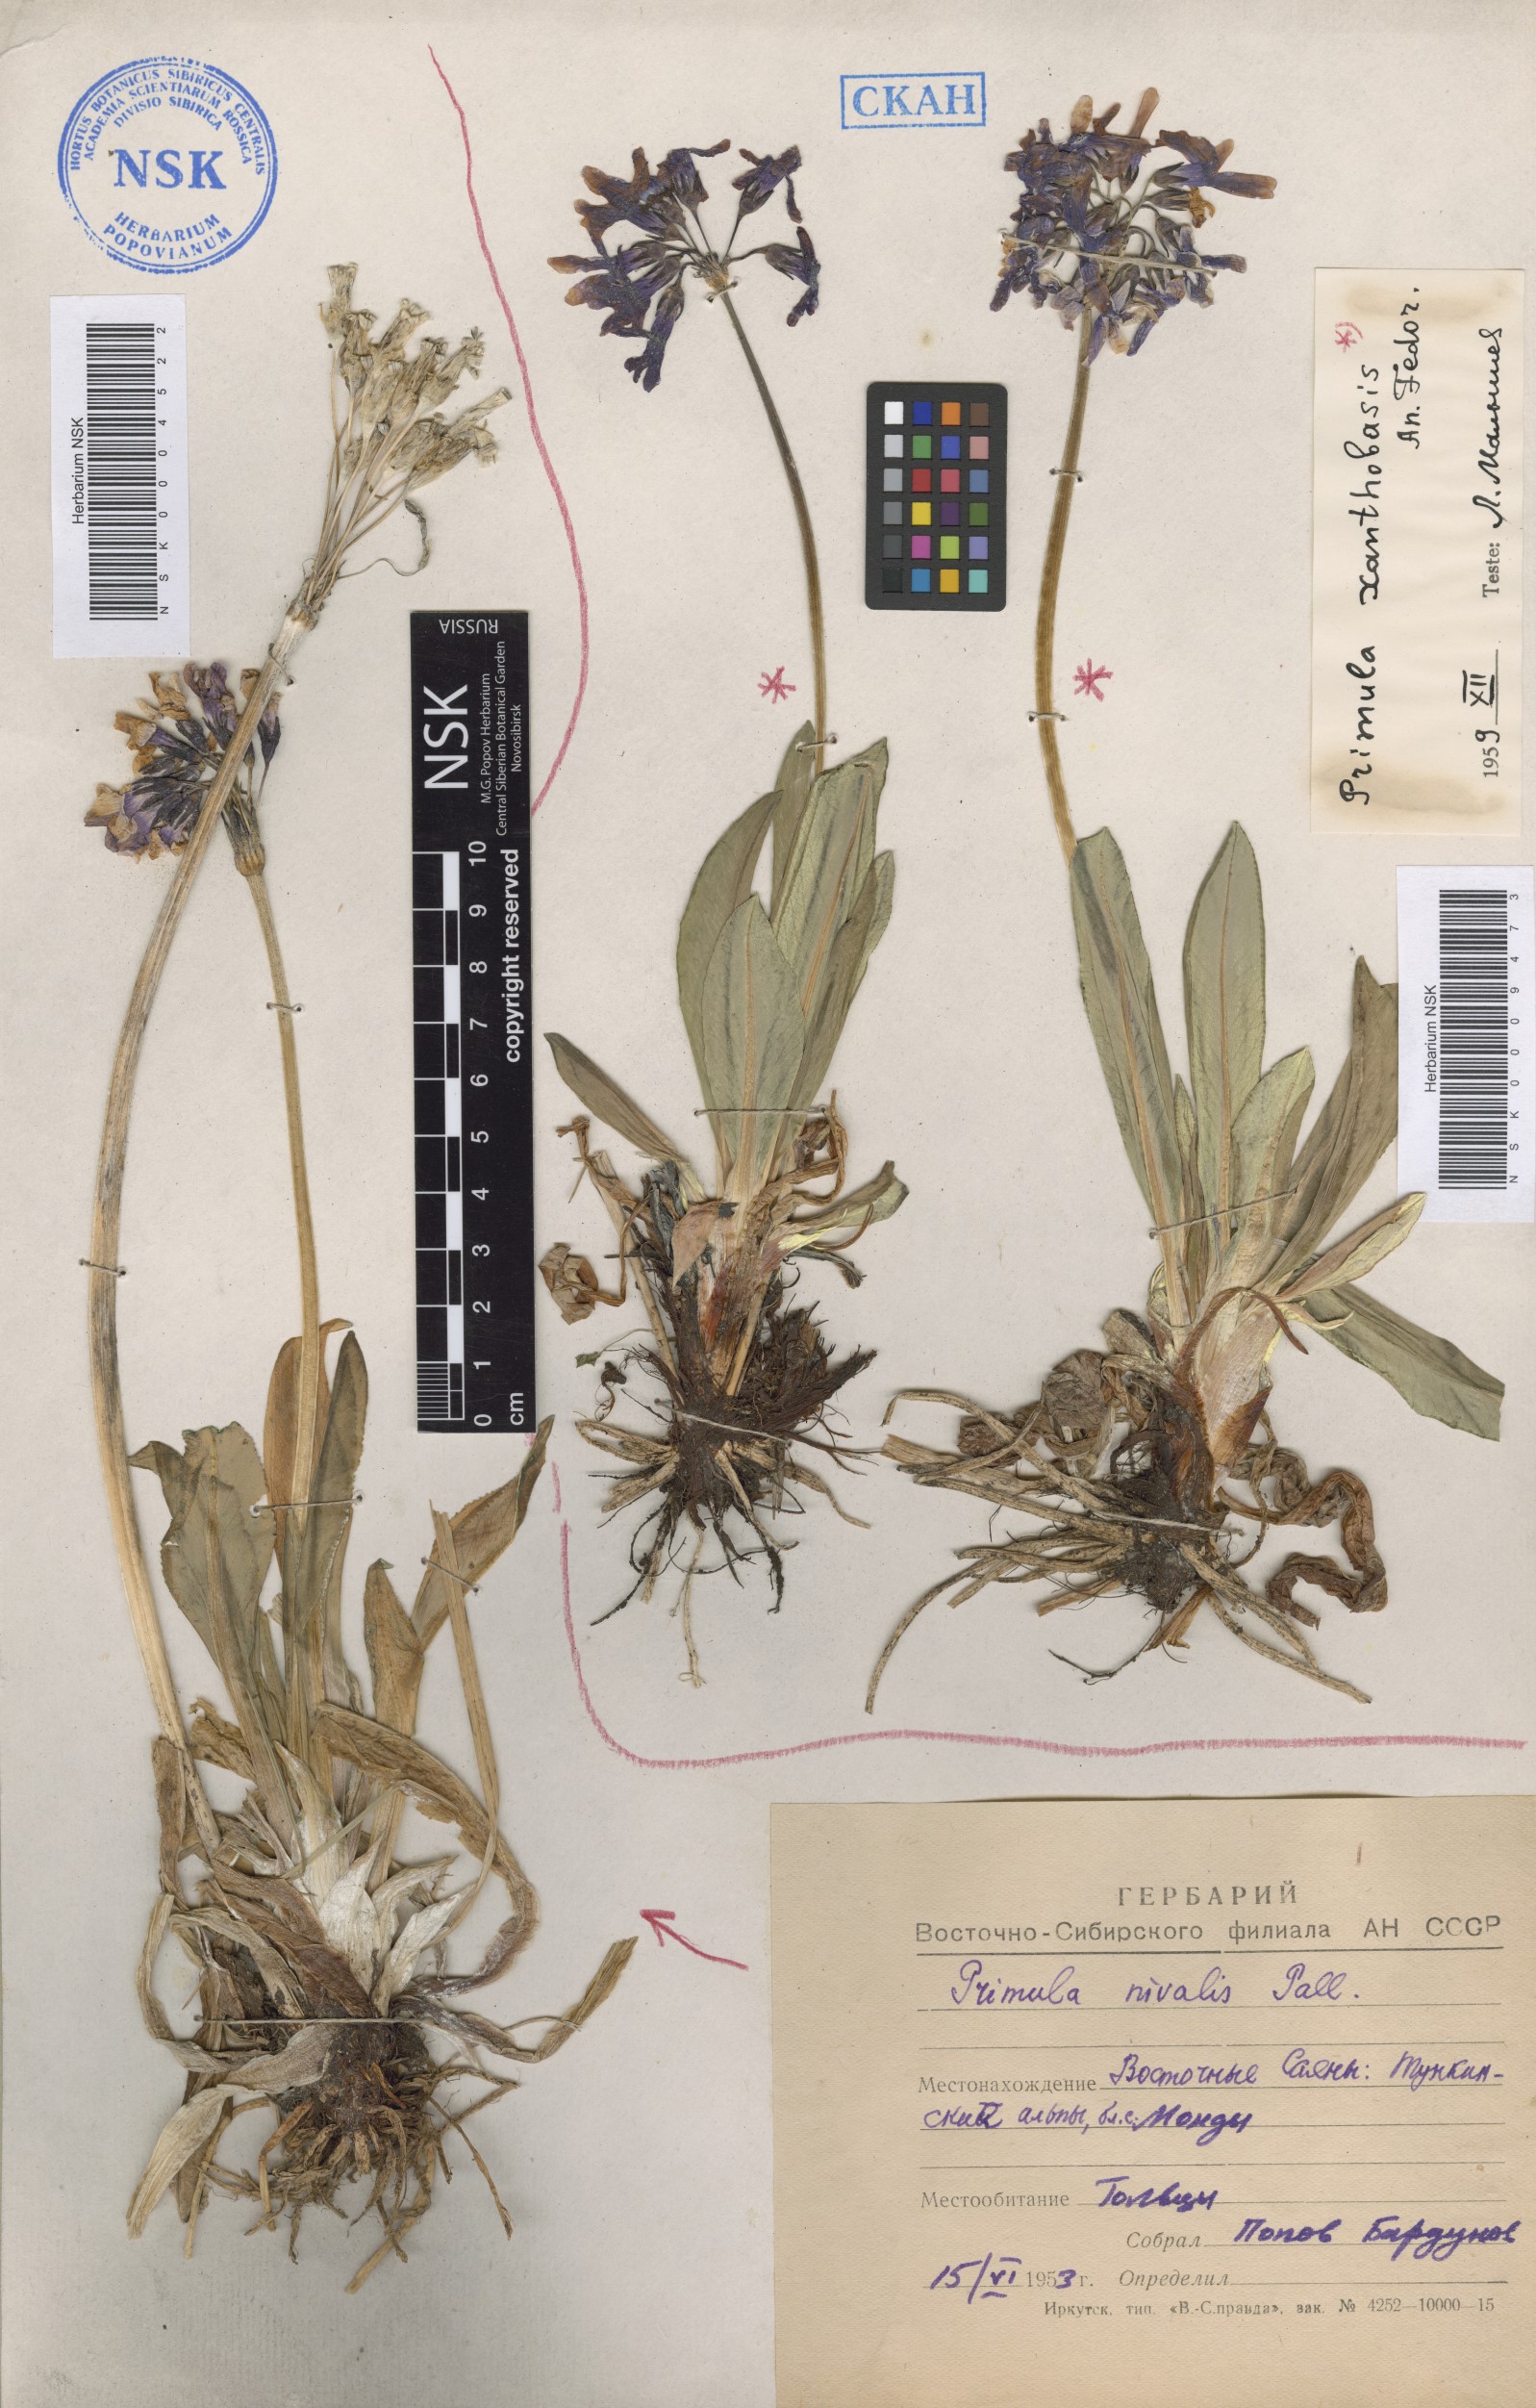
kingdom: Plantae
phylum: Tracheophyta
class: Magnoliopsida
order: Ericales
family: Primulaceae
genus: Primula
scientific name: Primula nivalis
